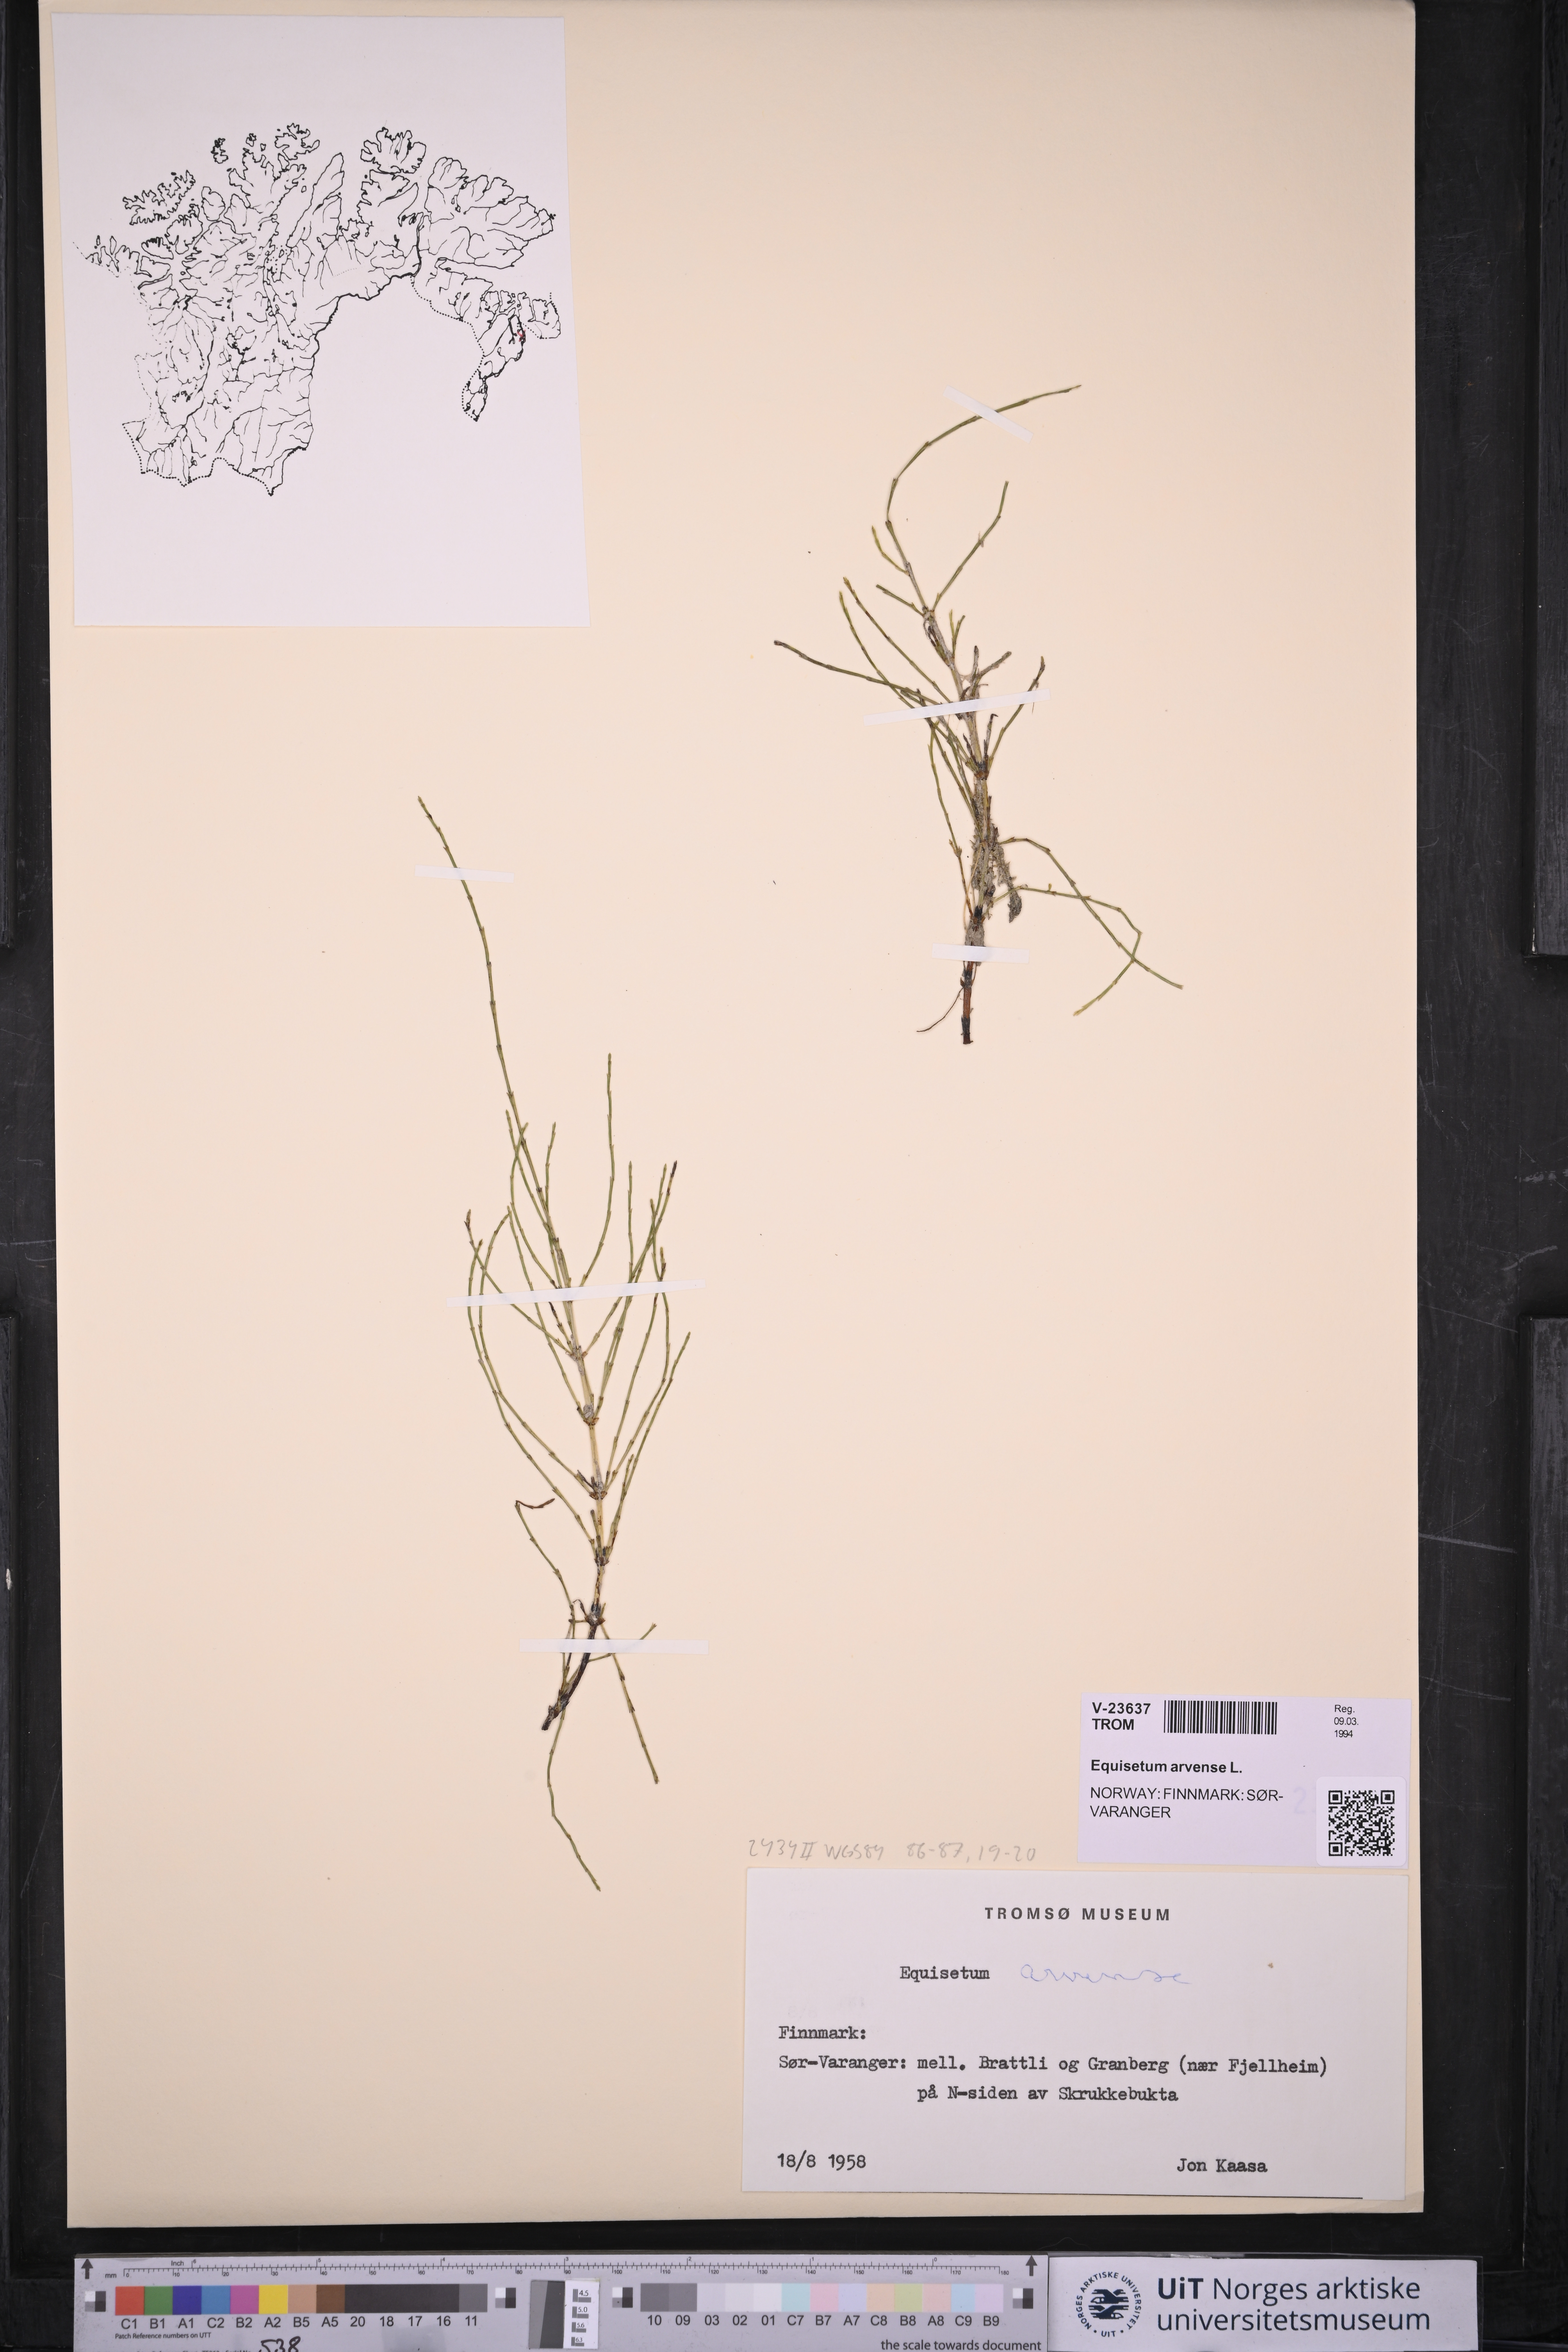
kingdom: Plantae
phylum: Tracheophyta
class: Polypodiopsida
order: Equisetales
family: Equisetaceae
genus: Equisetum
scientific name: Equisetum arvense
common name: Field horsetail
